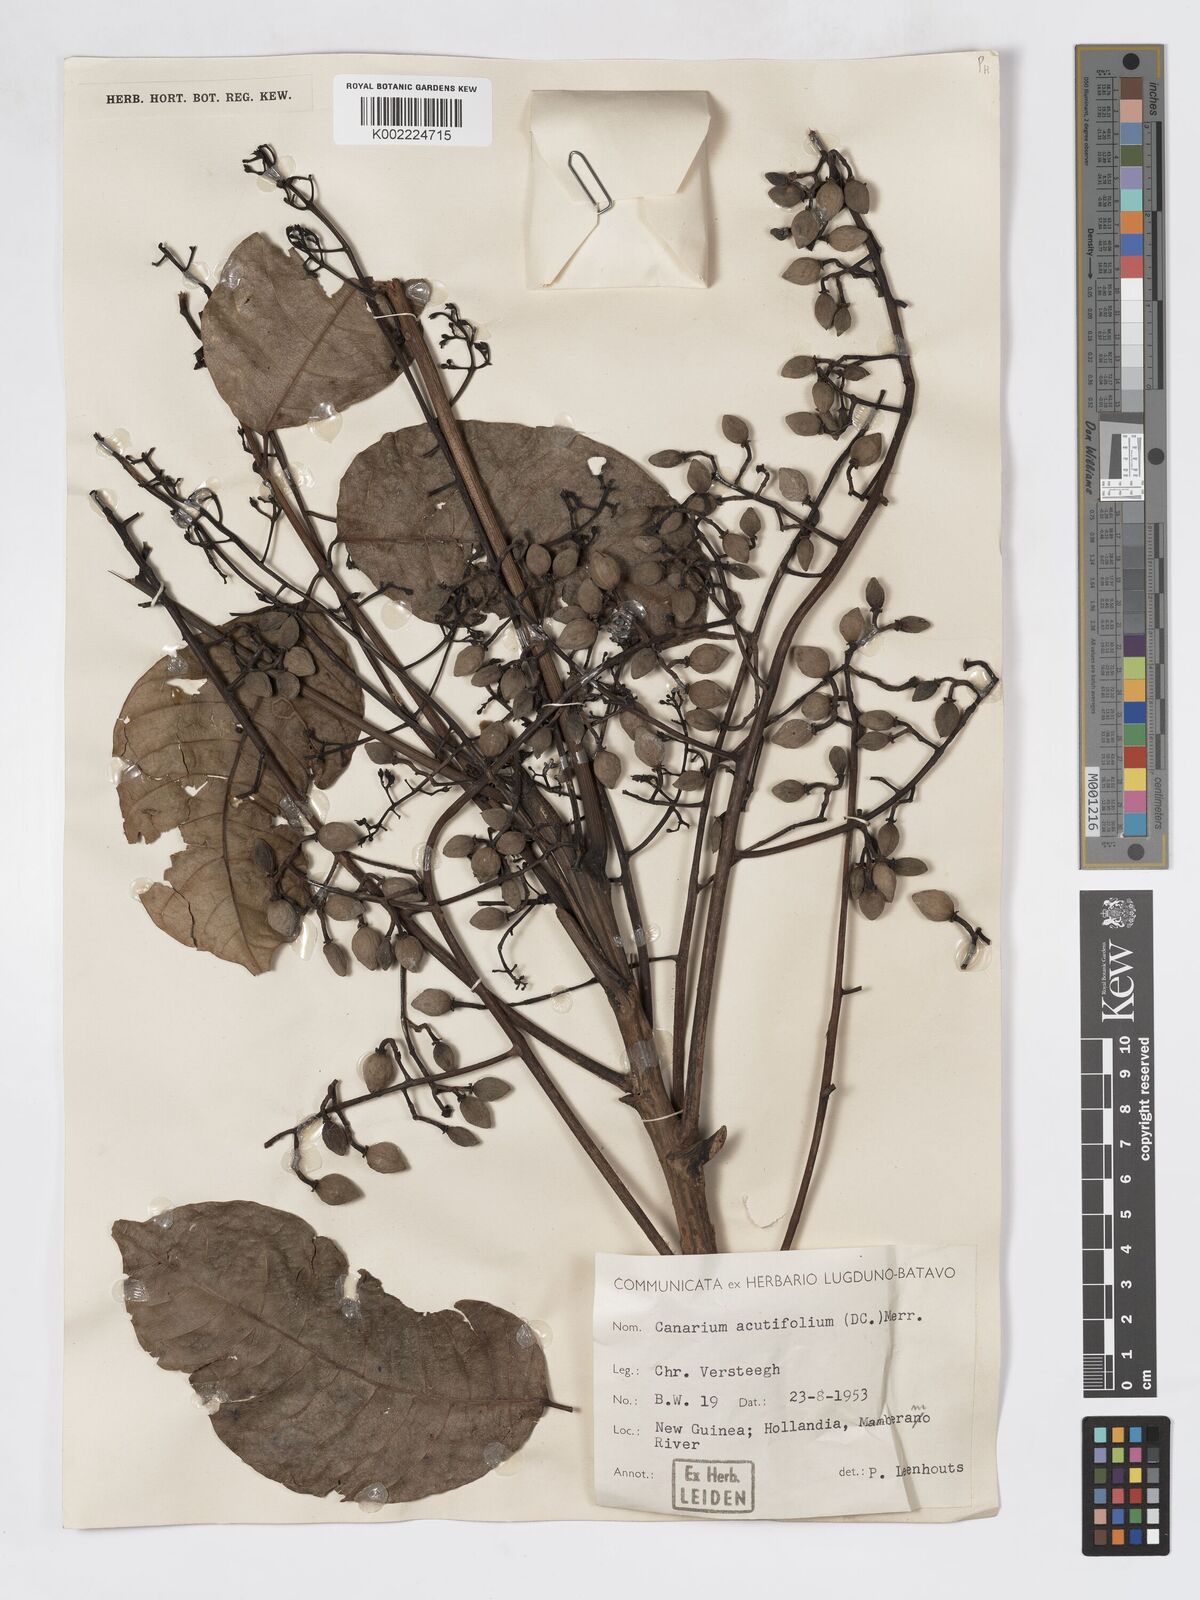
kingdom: Plantae
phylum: Tracheophyta
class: Magnoliopsida
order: Sapindales
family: Burseraceae
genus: Canarium
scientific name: Canarium acutifolium
